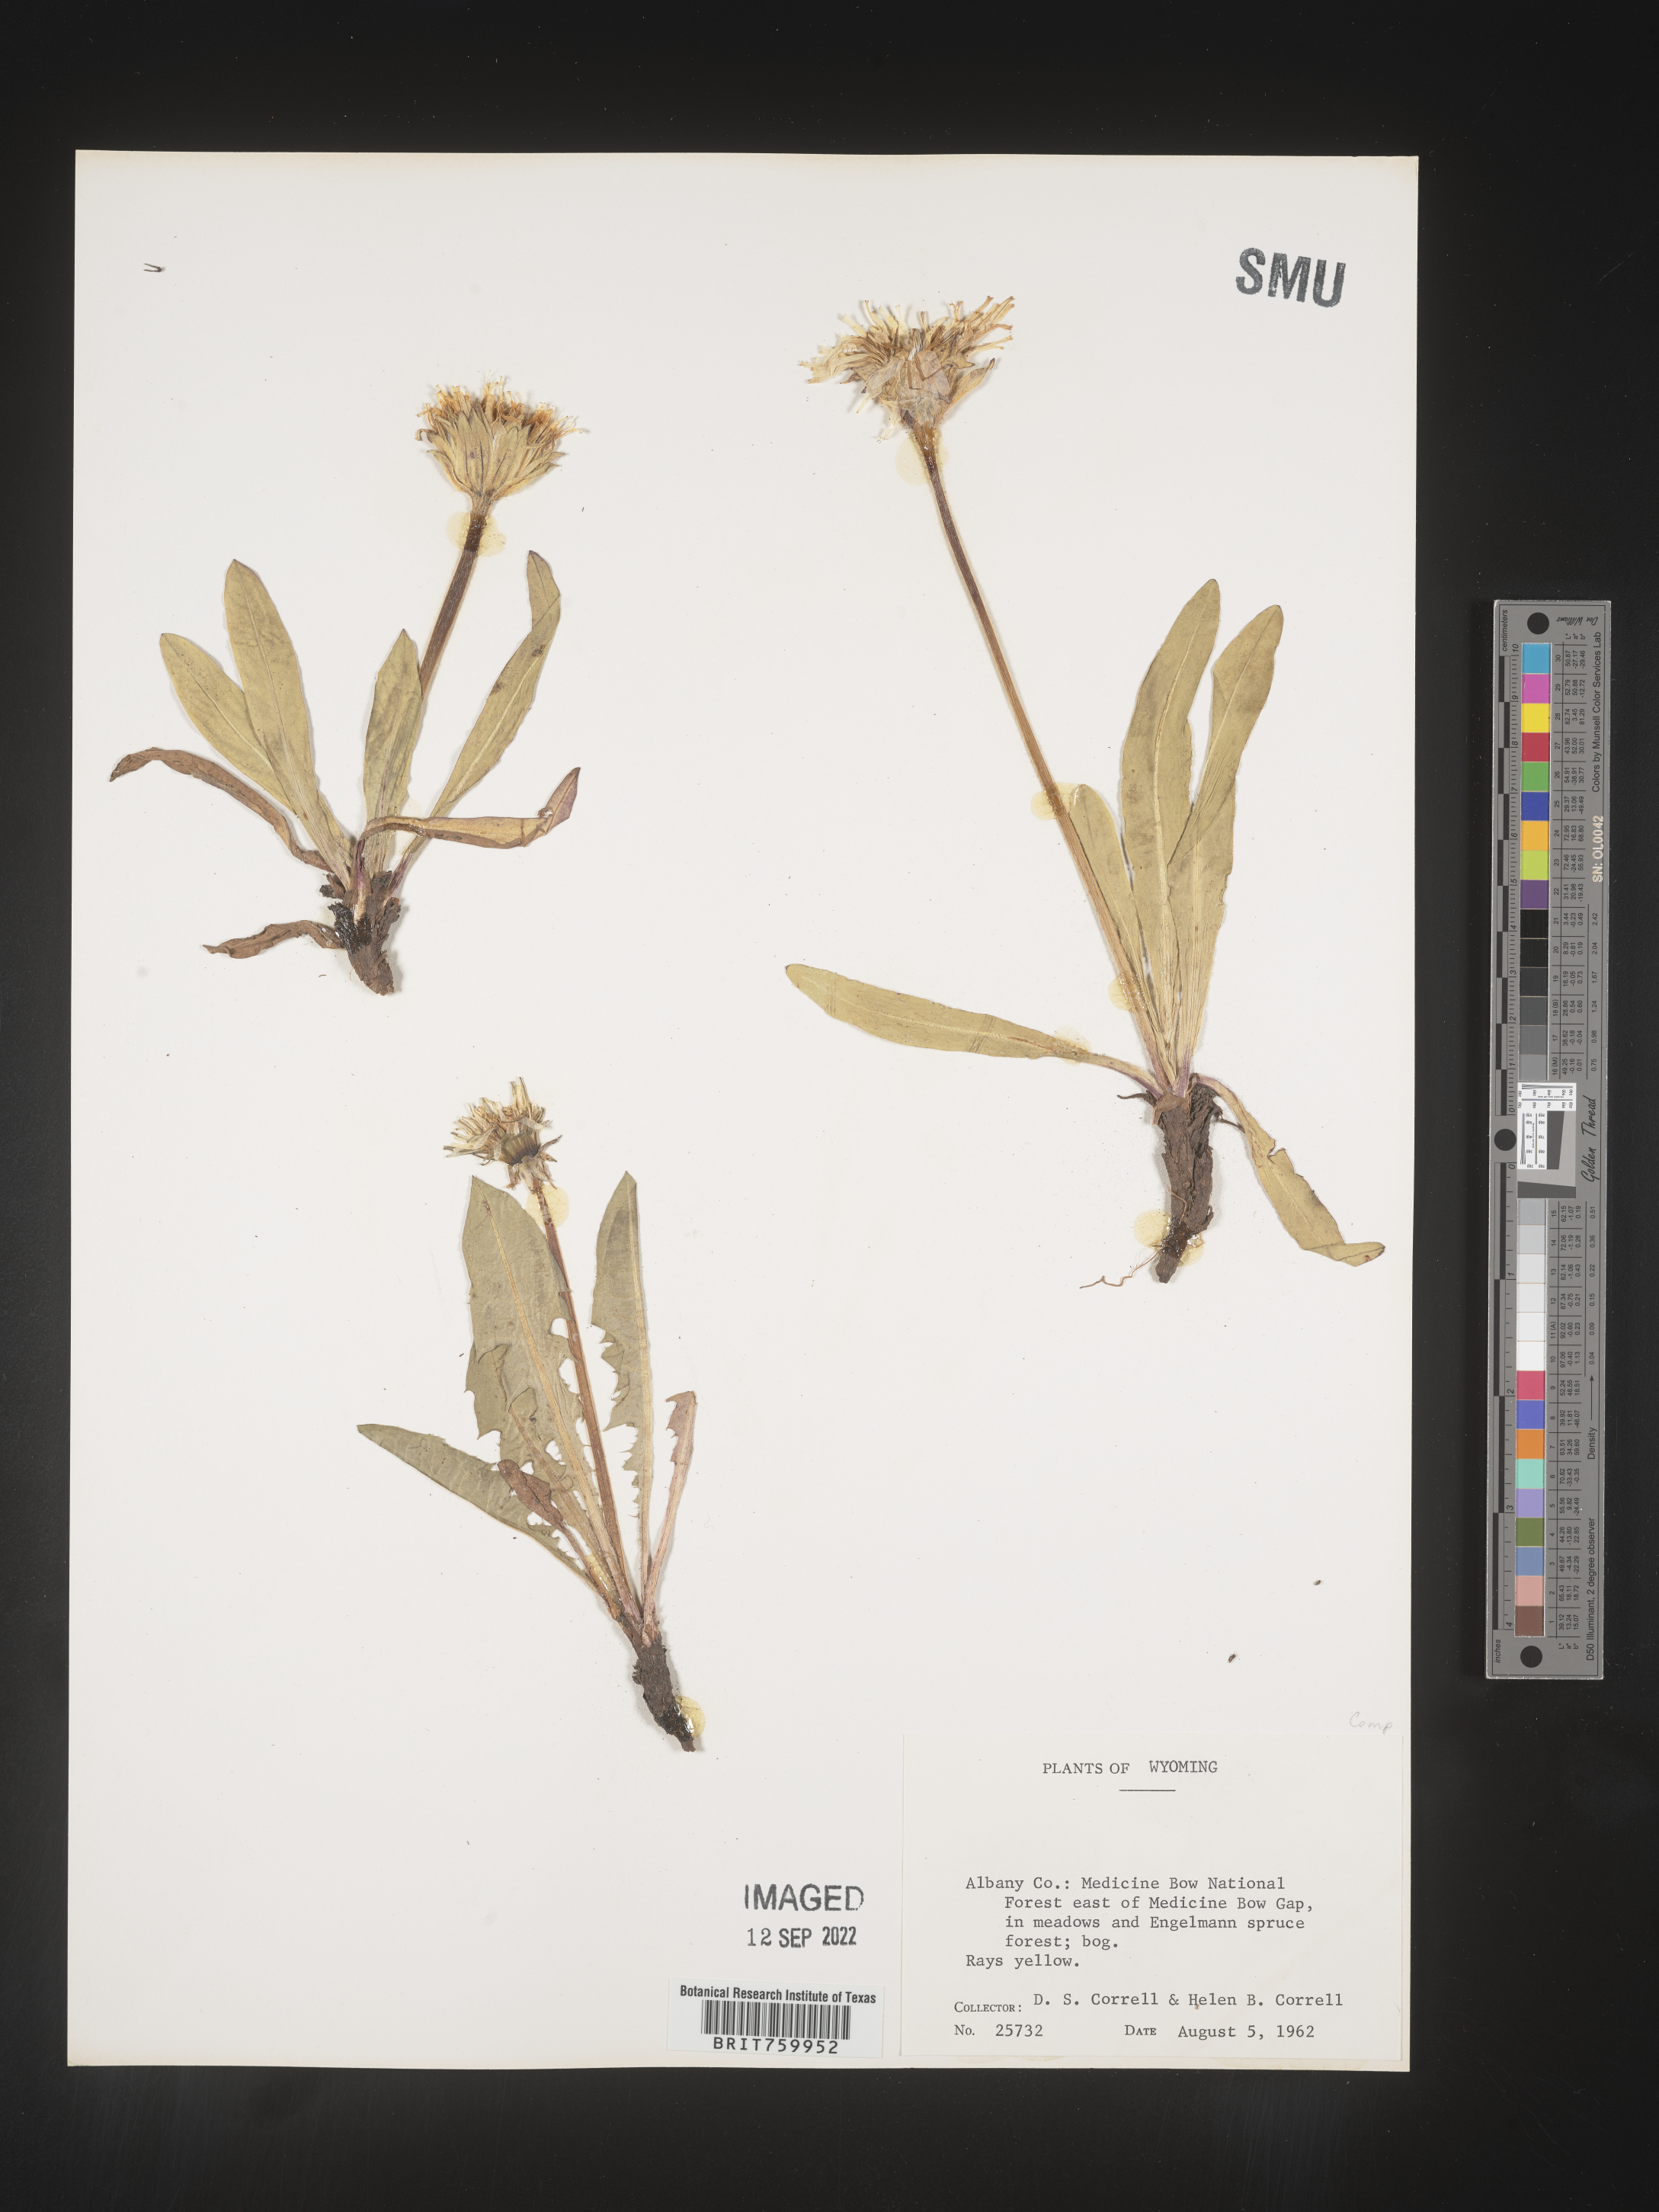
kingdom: Plantae
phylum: Tracheophyta
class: Magnoliopsida
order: Asterales
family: Asteraceae
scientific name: Asteraceae
